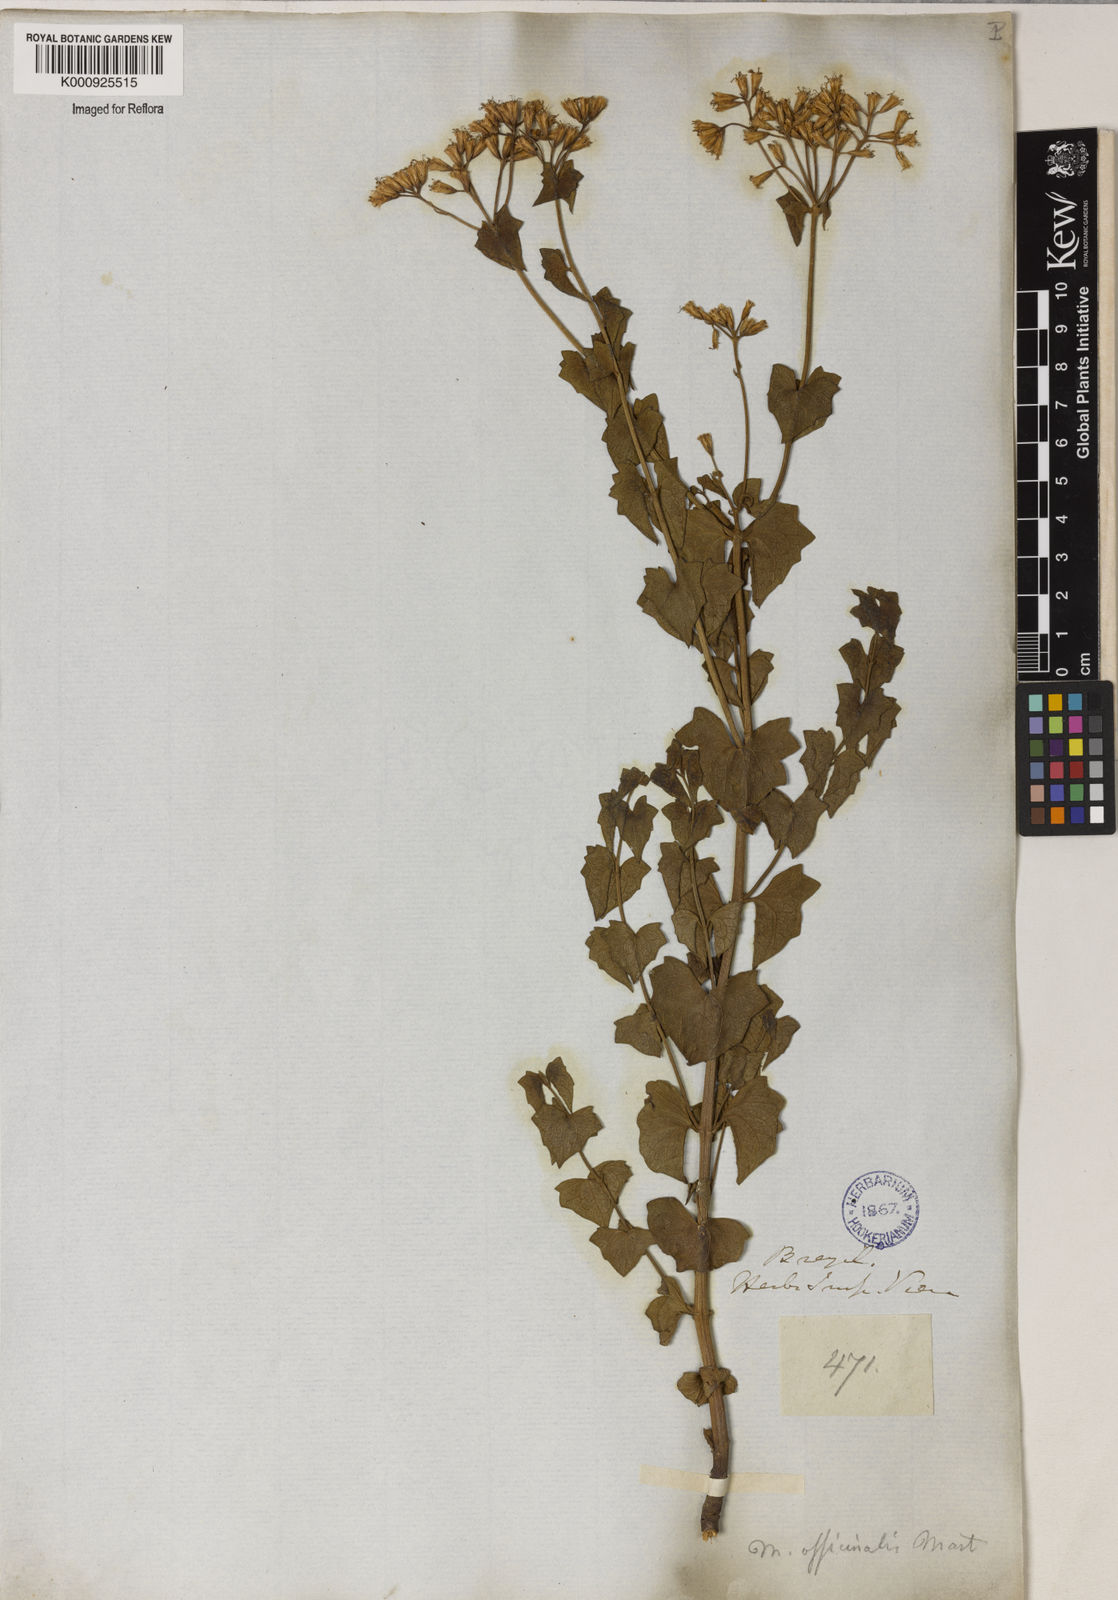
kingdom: Plantae
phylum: Tracheophyta
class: Magnoliopsida
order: Asterales
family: Asteraceae
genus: Mikania
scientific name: Mikania officinalis
